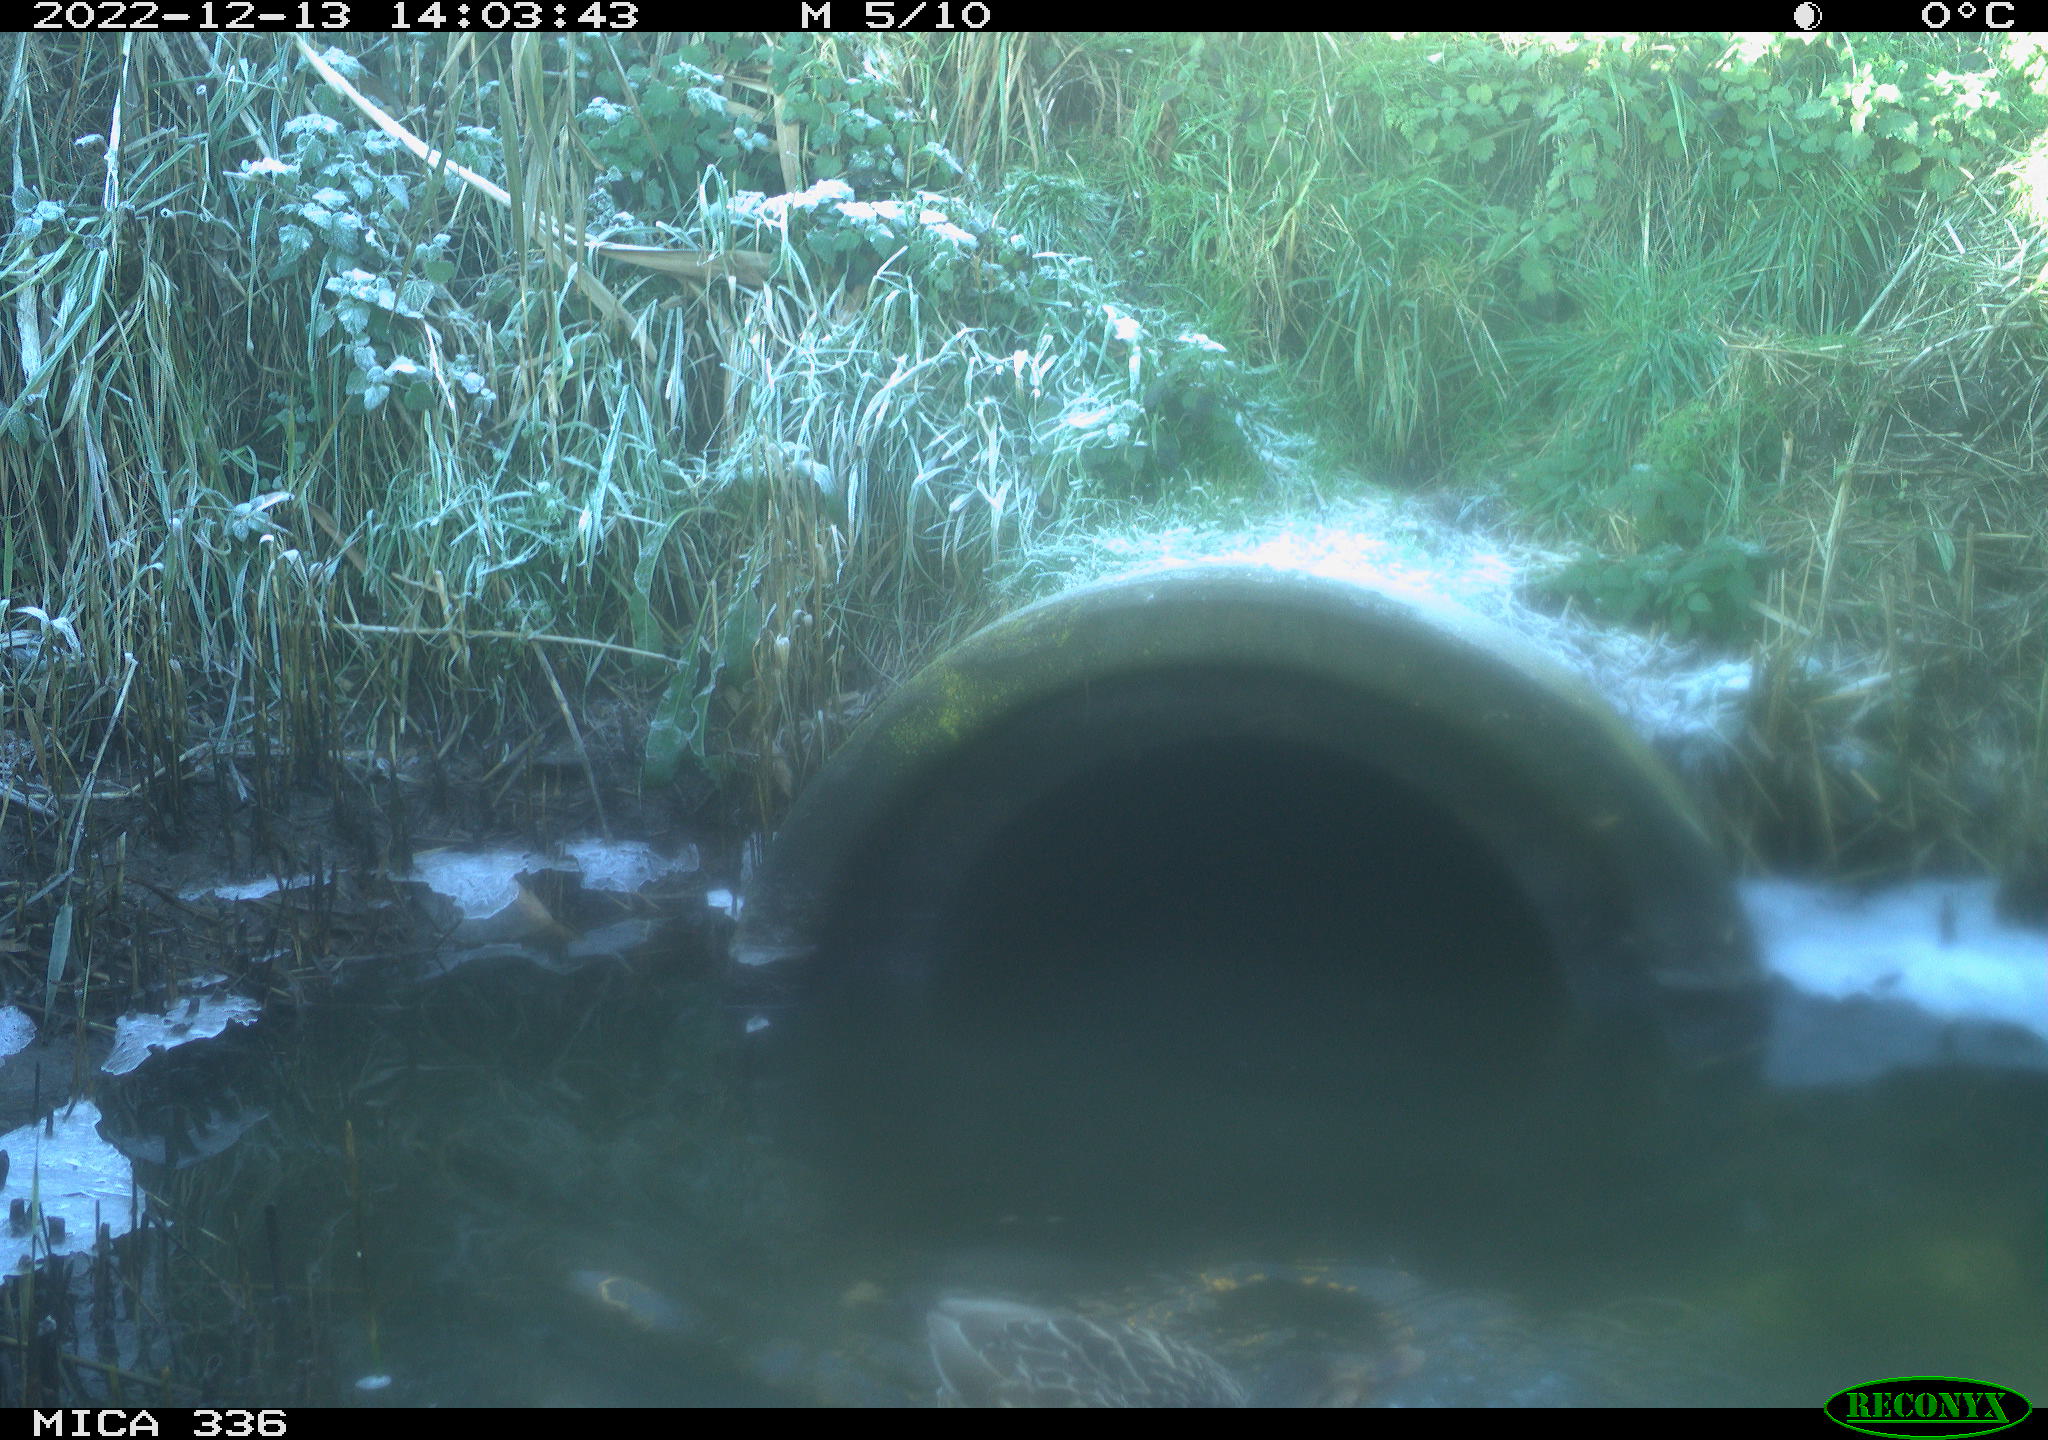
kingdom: Animalia
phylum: Chordata
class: Aves
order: Anseriformes
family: Anatidae
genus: Anas
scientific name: Anas platyrhynchos
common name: Mallard
